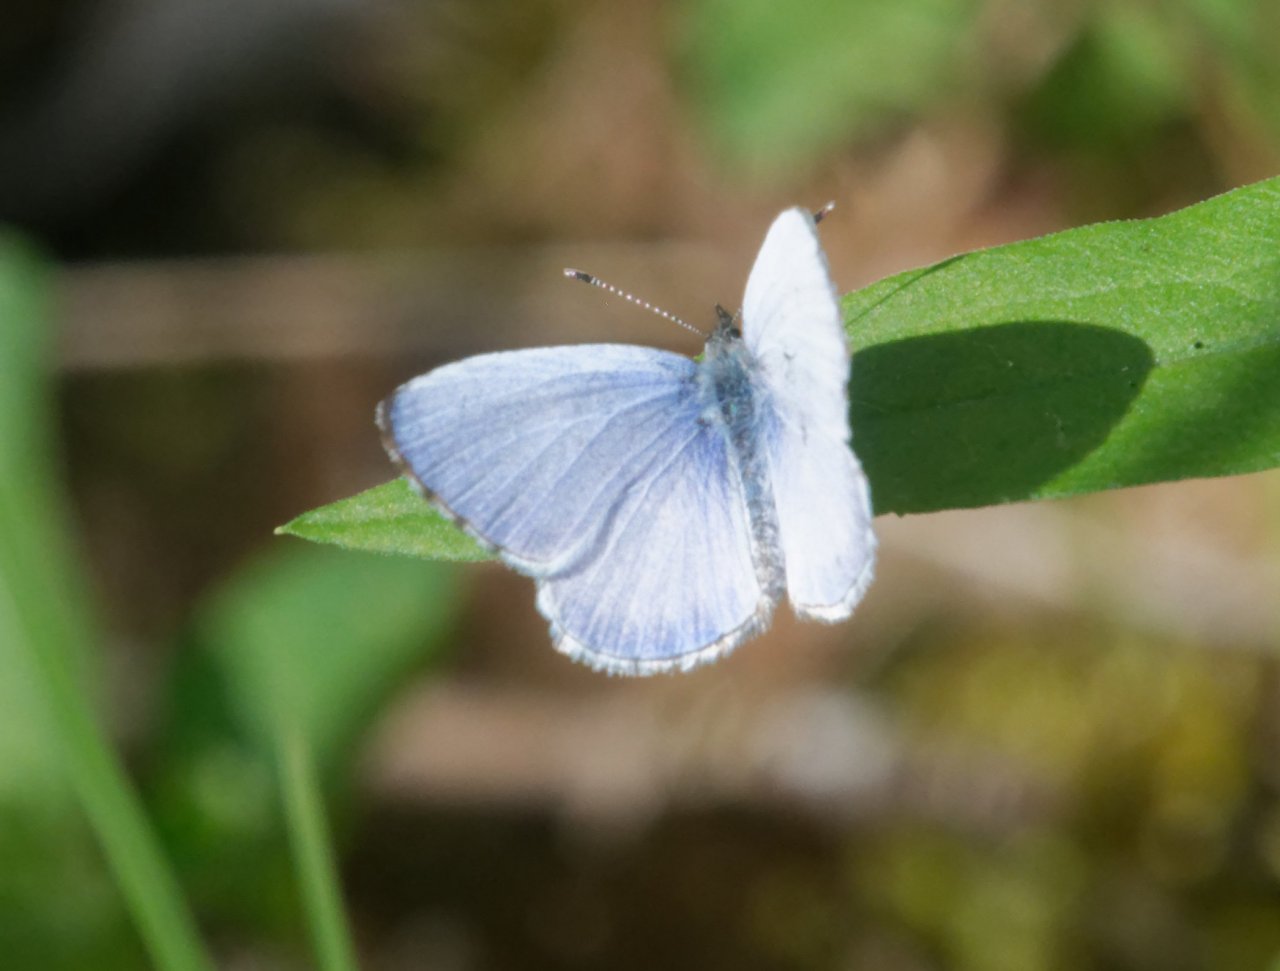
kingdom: Animalia
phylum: Arthropoda
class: Insecta
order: Lepidoptera
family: Lycaenidae
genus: Celastrina
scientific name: Celastrina serotina
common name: Cherry Gall Azure
